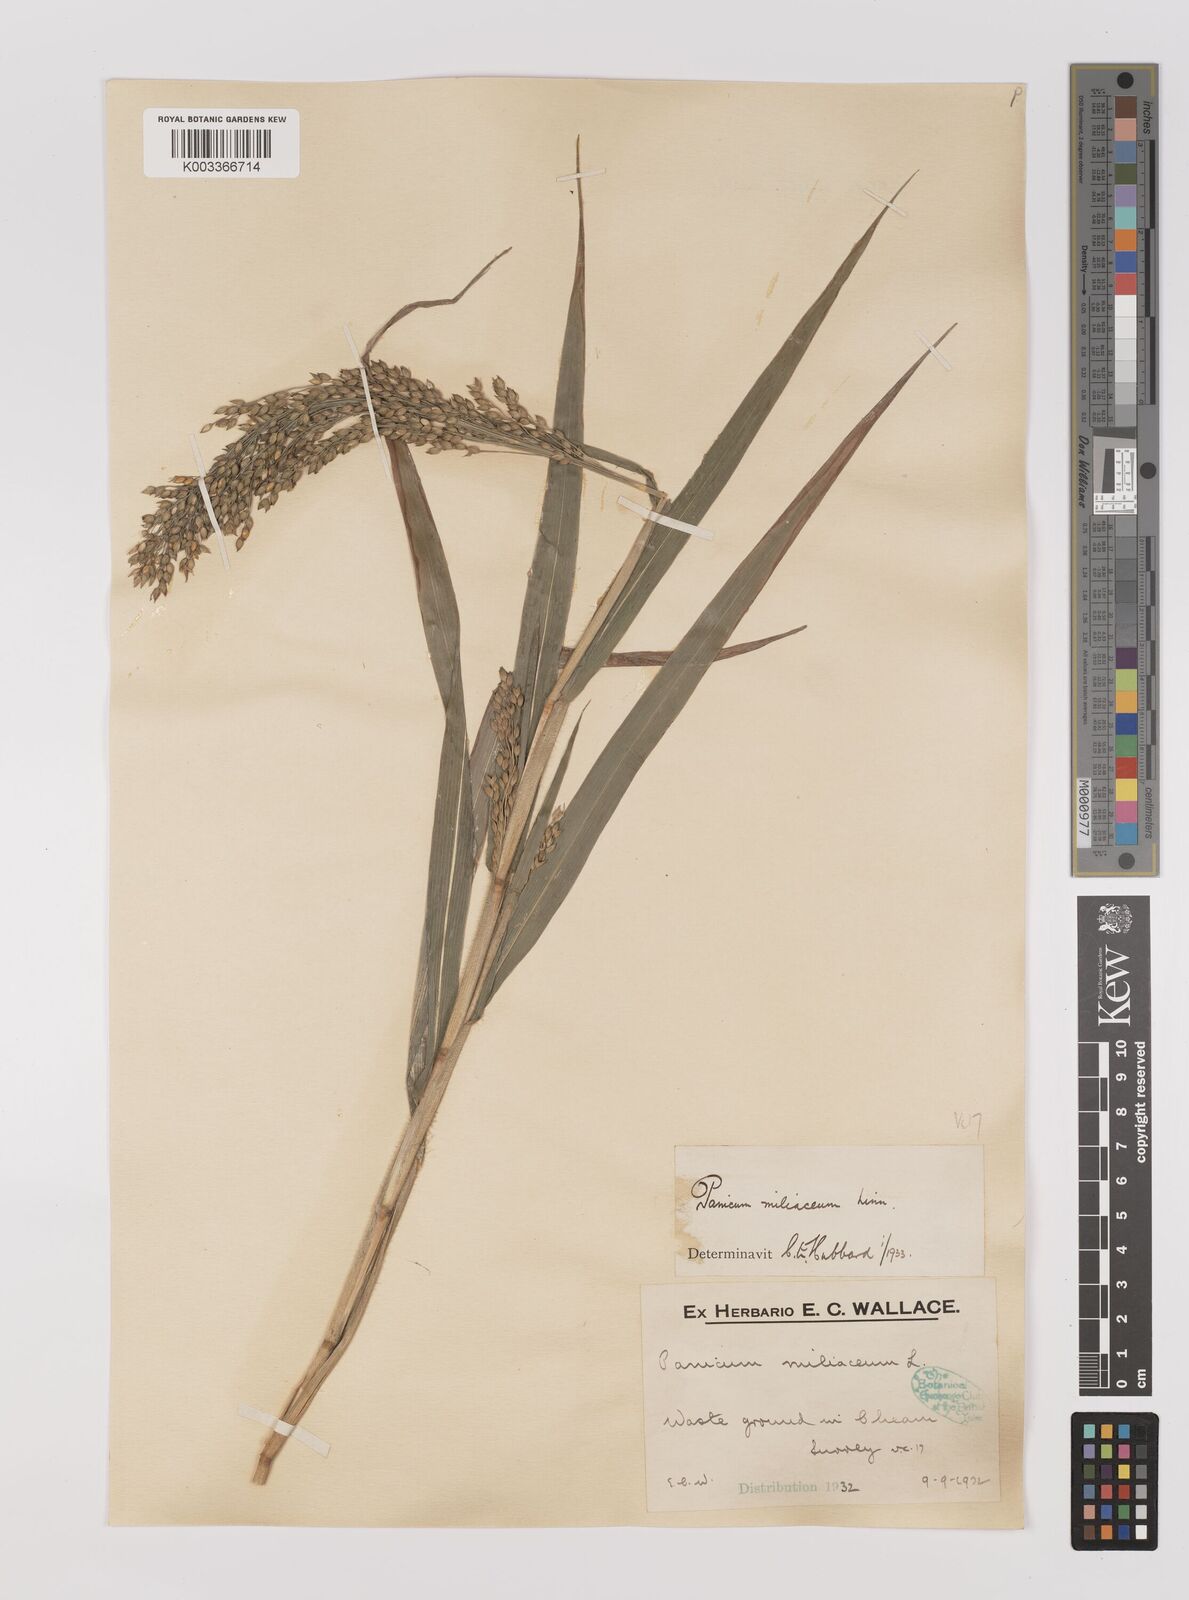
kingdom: Plantae
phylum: Tracheophyta
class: Liliopsida
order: Poales
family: Poaceae
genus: Panicum
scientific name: Panicum miliaceum
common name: Common millet
